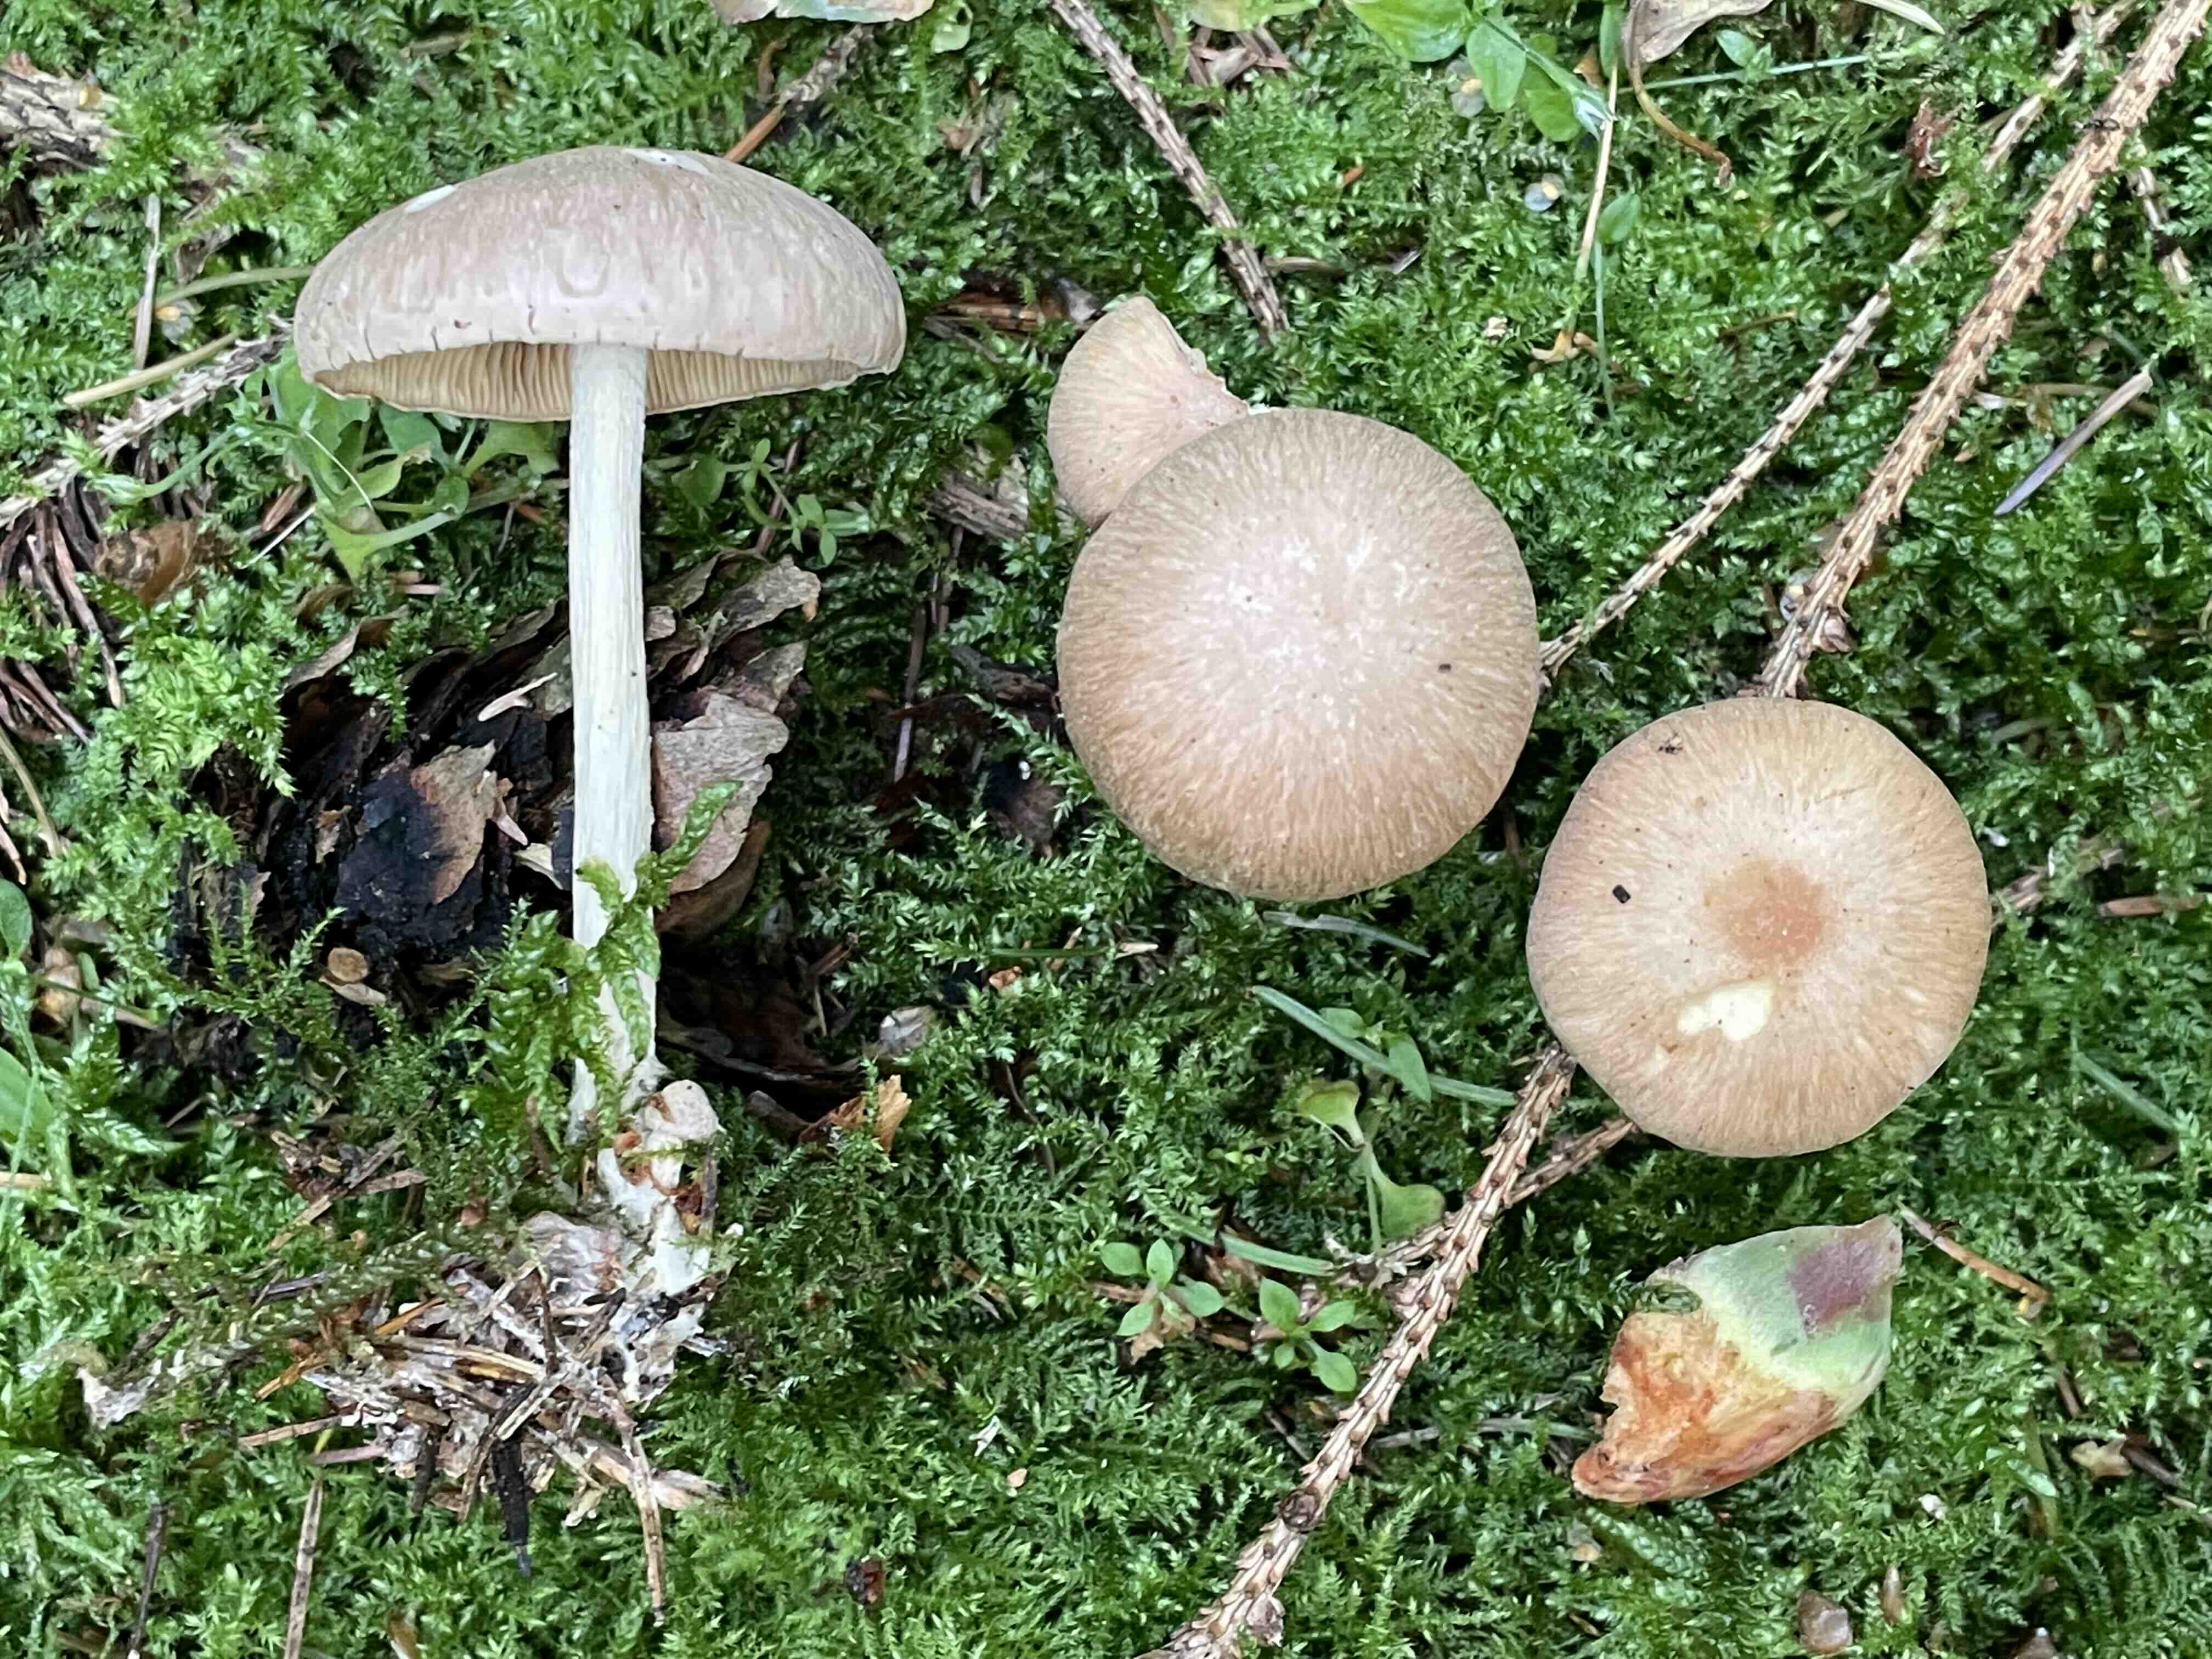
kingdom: Fungi
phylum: Basidiomycota
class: Agaricomycetes
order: Agaricales
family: Omphalotaceae
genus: Collybiopsis
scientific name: Collybiopsis peronata
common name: bestøvlet fladhat
